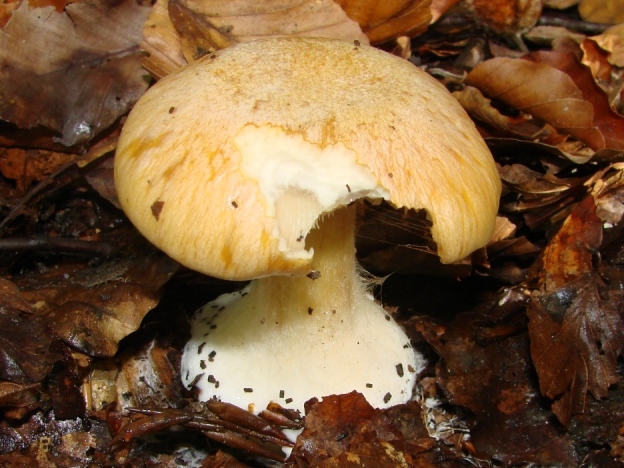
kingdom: Fungi
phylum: Basidiomycota
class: Agaricomycetes
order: Agaricales
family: Cortinariaceae
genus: Phlegmacium
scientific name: Phlegmacium aquilanum
